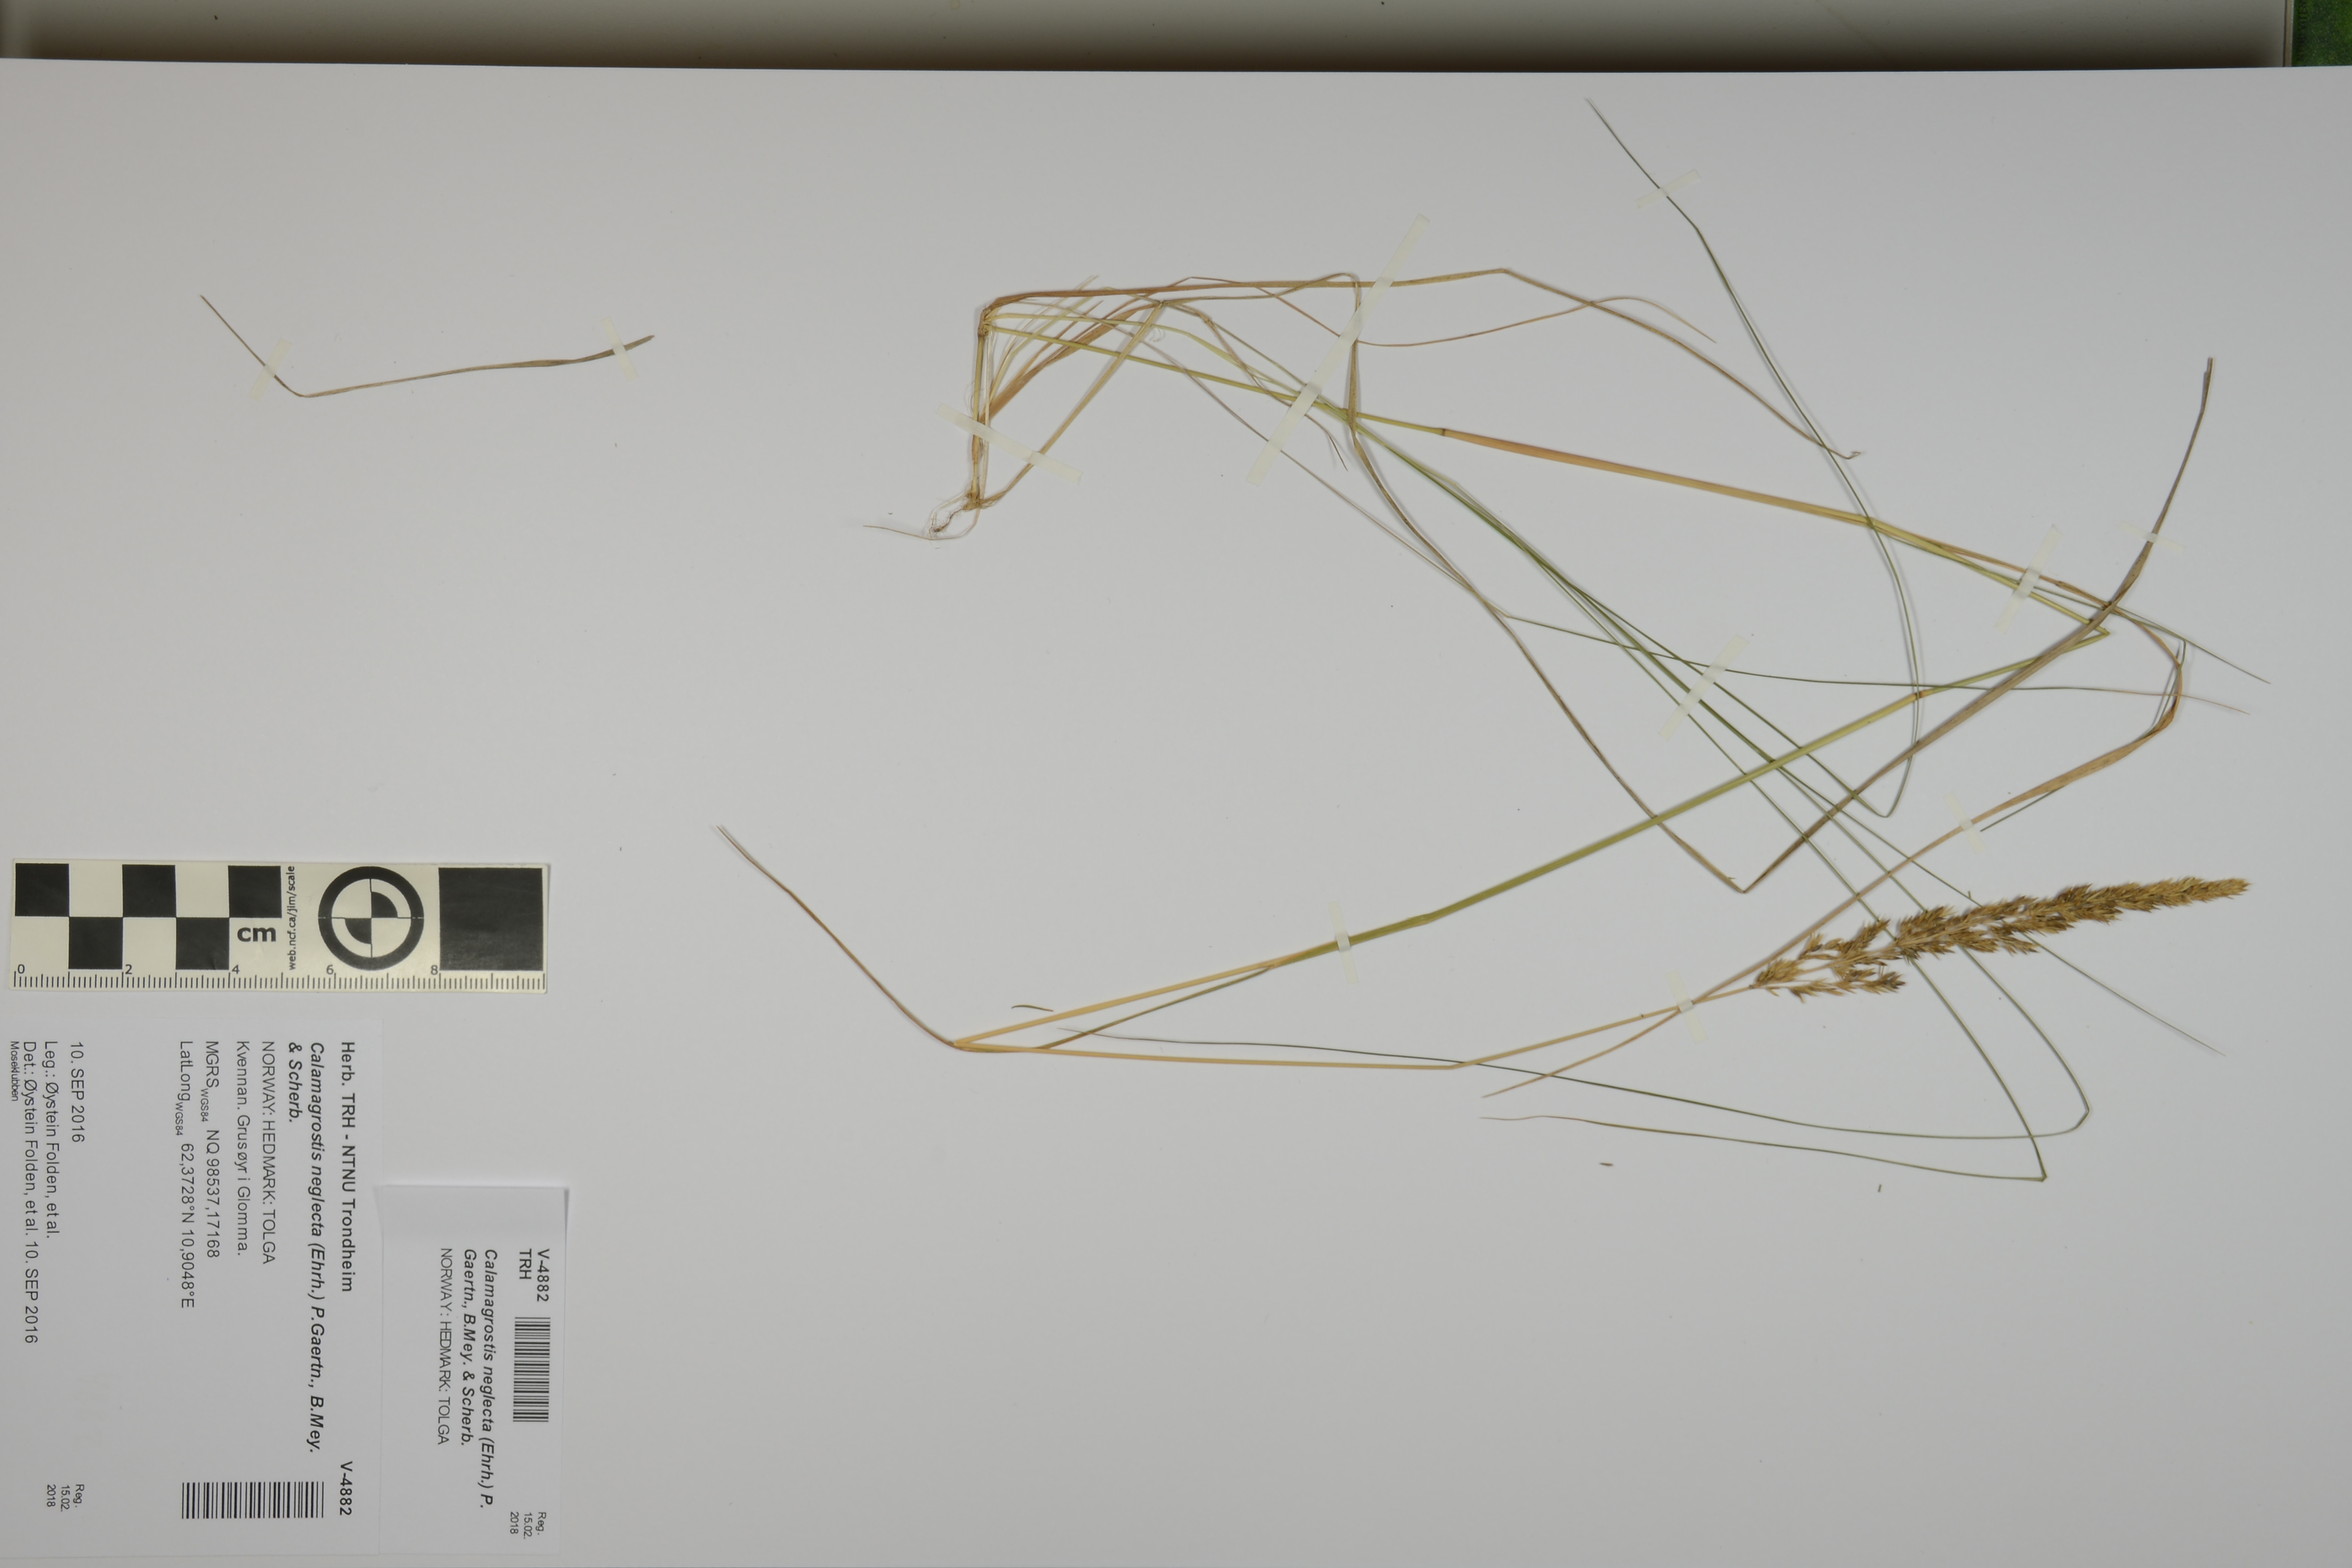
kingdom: Plantae
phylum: Tracheophyta
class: Liliopsida
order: Poales
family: Poaceae
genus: Achnatherum
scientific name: Achnatherum calamagrostis
